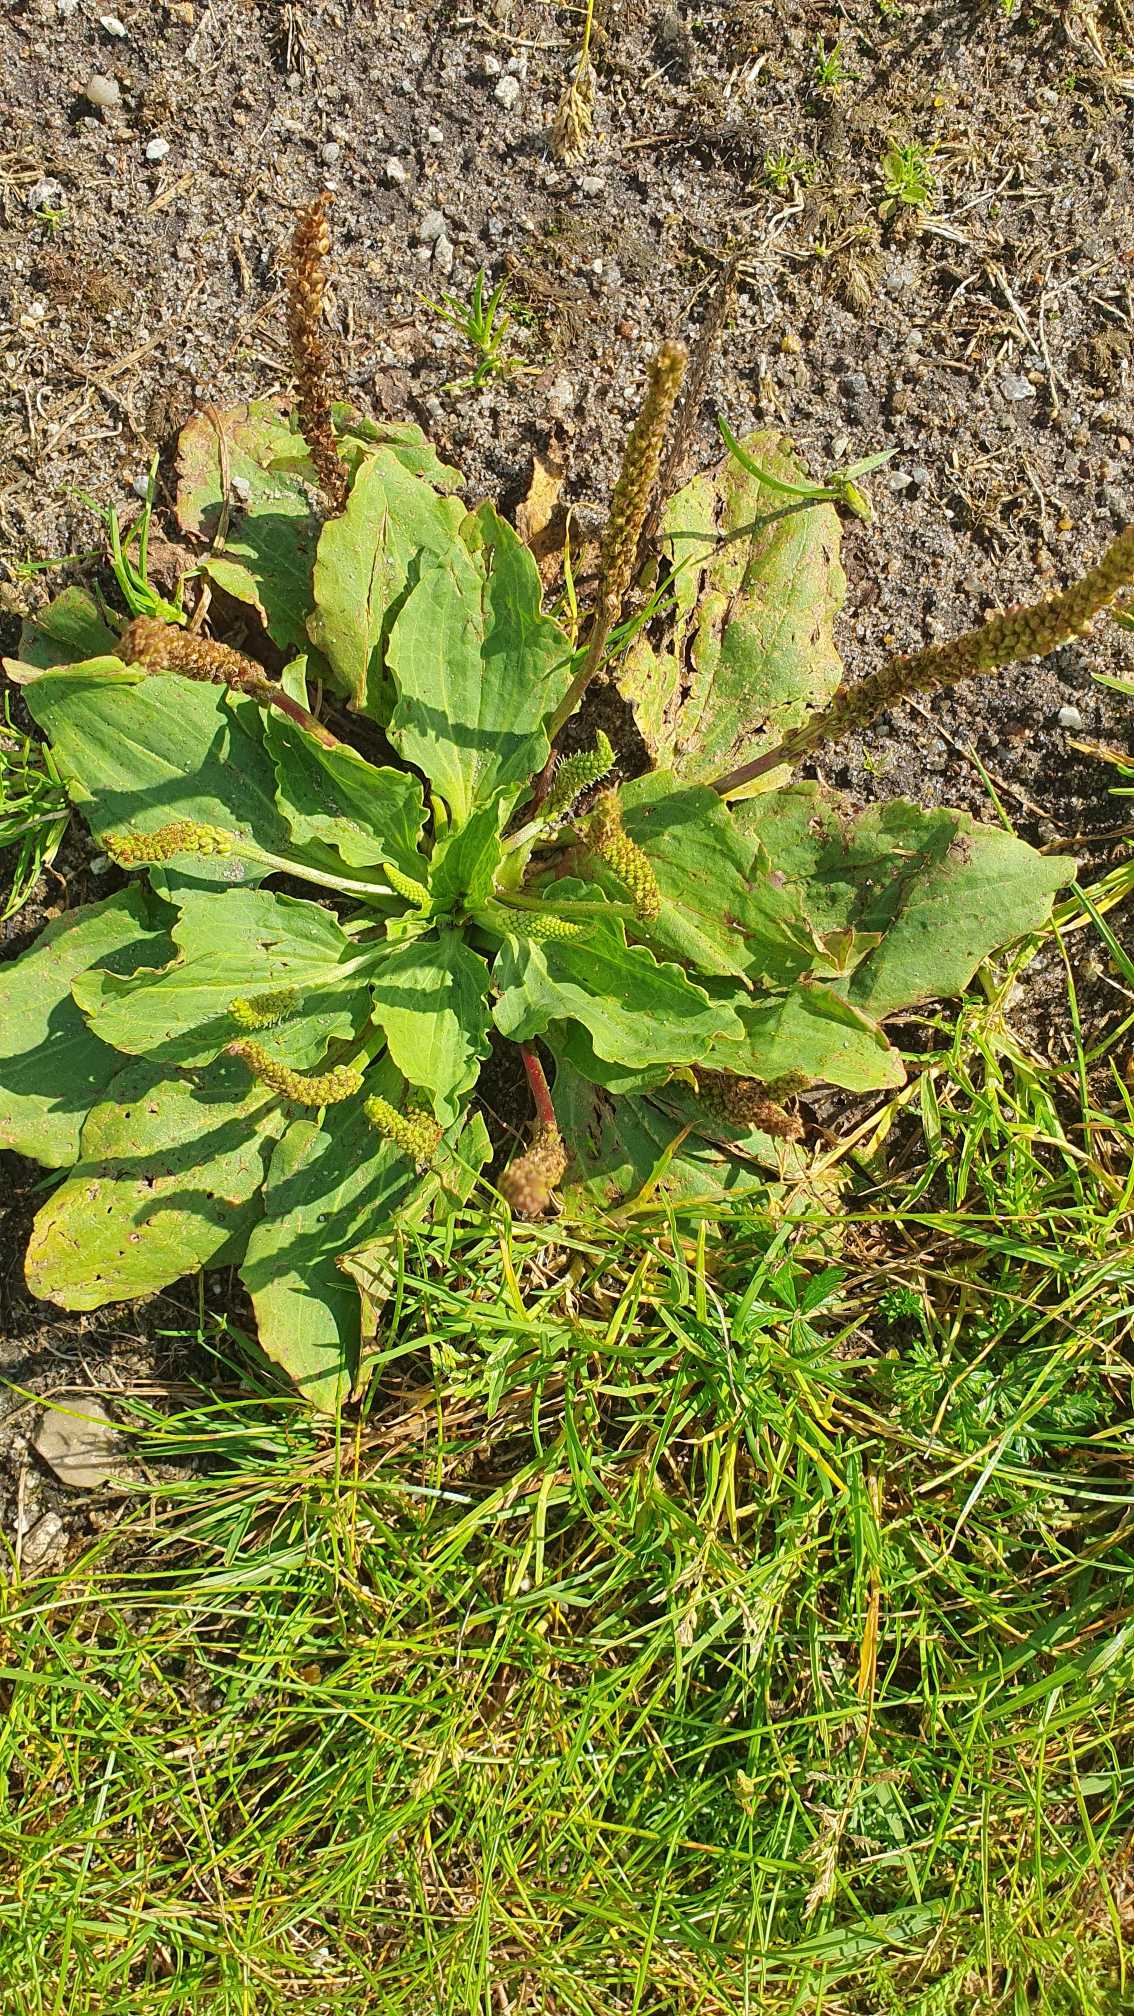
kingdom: Plantae
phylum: Tracheophyta
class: Magnoliopsida
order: Lamiales
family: Plantaginaceae
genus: Plantago
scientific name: Plantago major
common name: Glat vejbred
